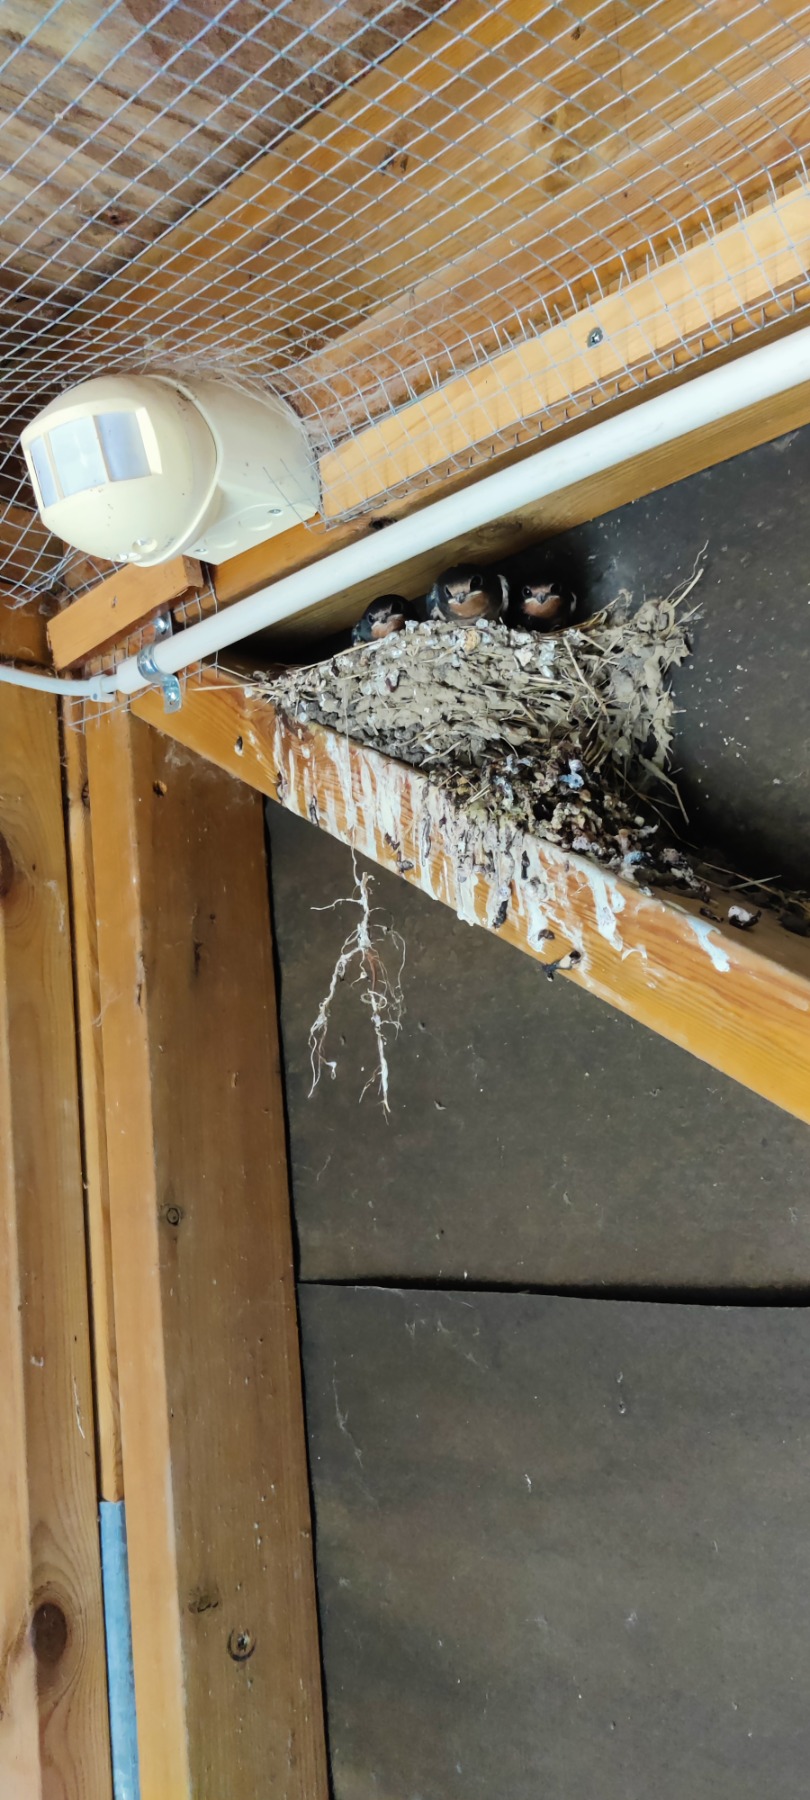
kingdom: Animalia
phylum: Chordata
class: Aves
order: Passeriformes
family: Hirundinidae
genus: Hirundo
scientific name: Hirundo rustica
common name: Landsvale
